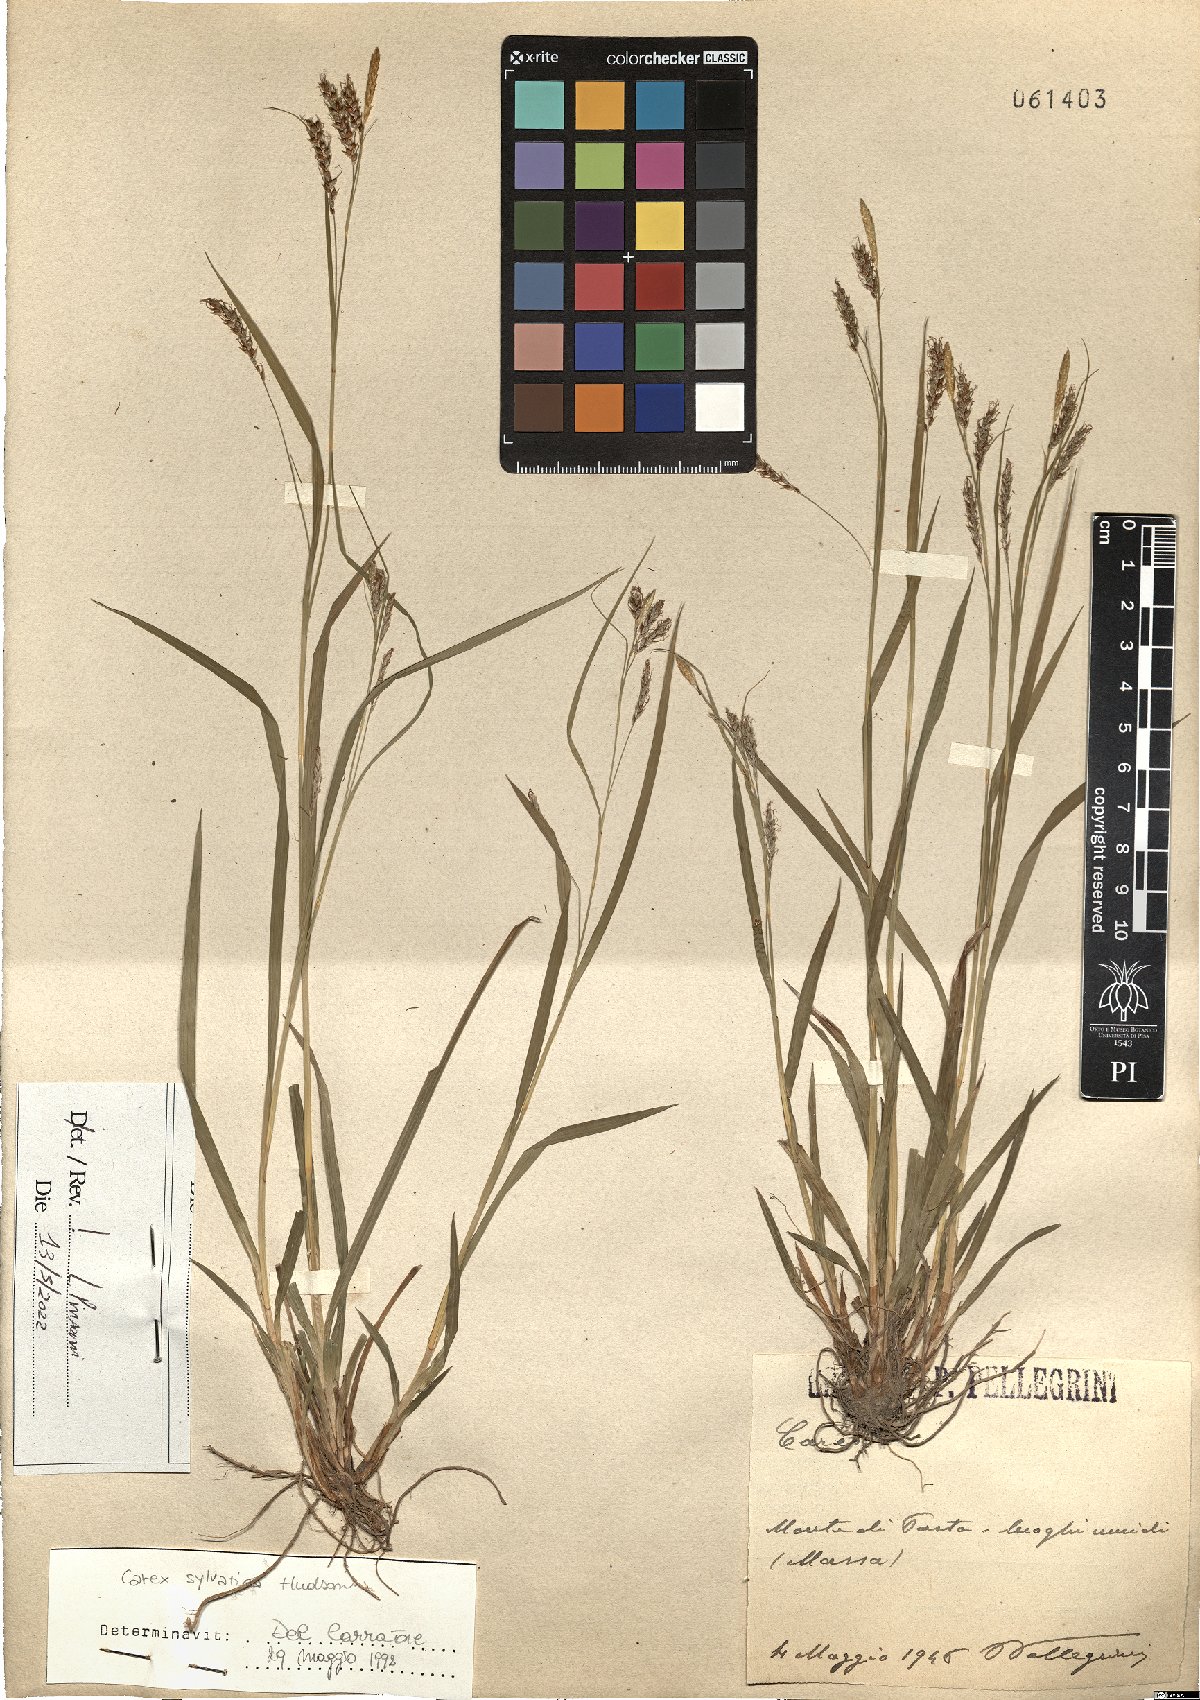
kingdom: Plantae
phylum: Tracheophyta
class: Liliopsida
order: Poales
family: Cyperaceae
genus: Carex
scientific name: Carex sylvatica
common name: Wood-sedge
